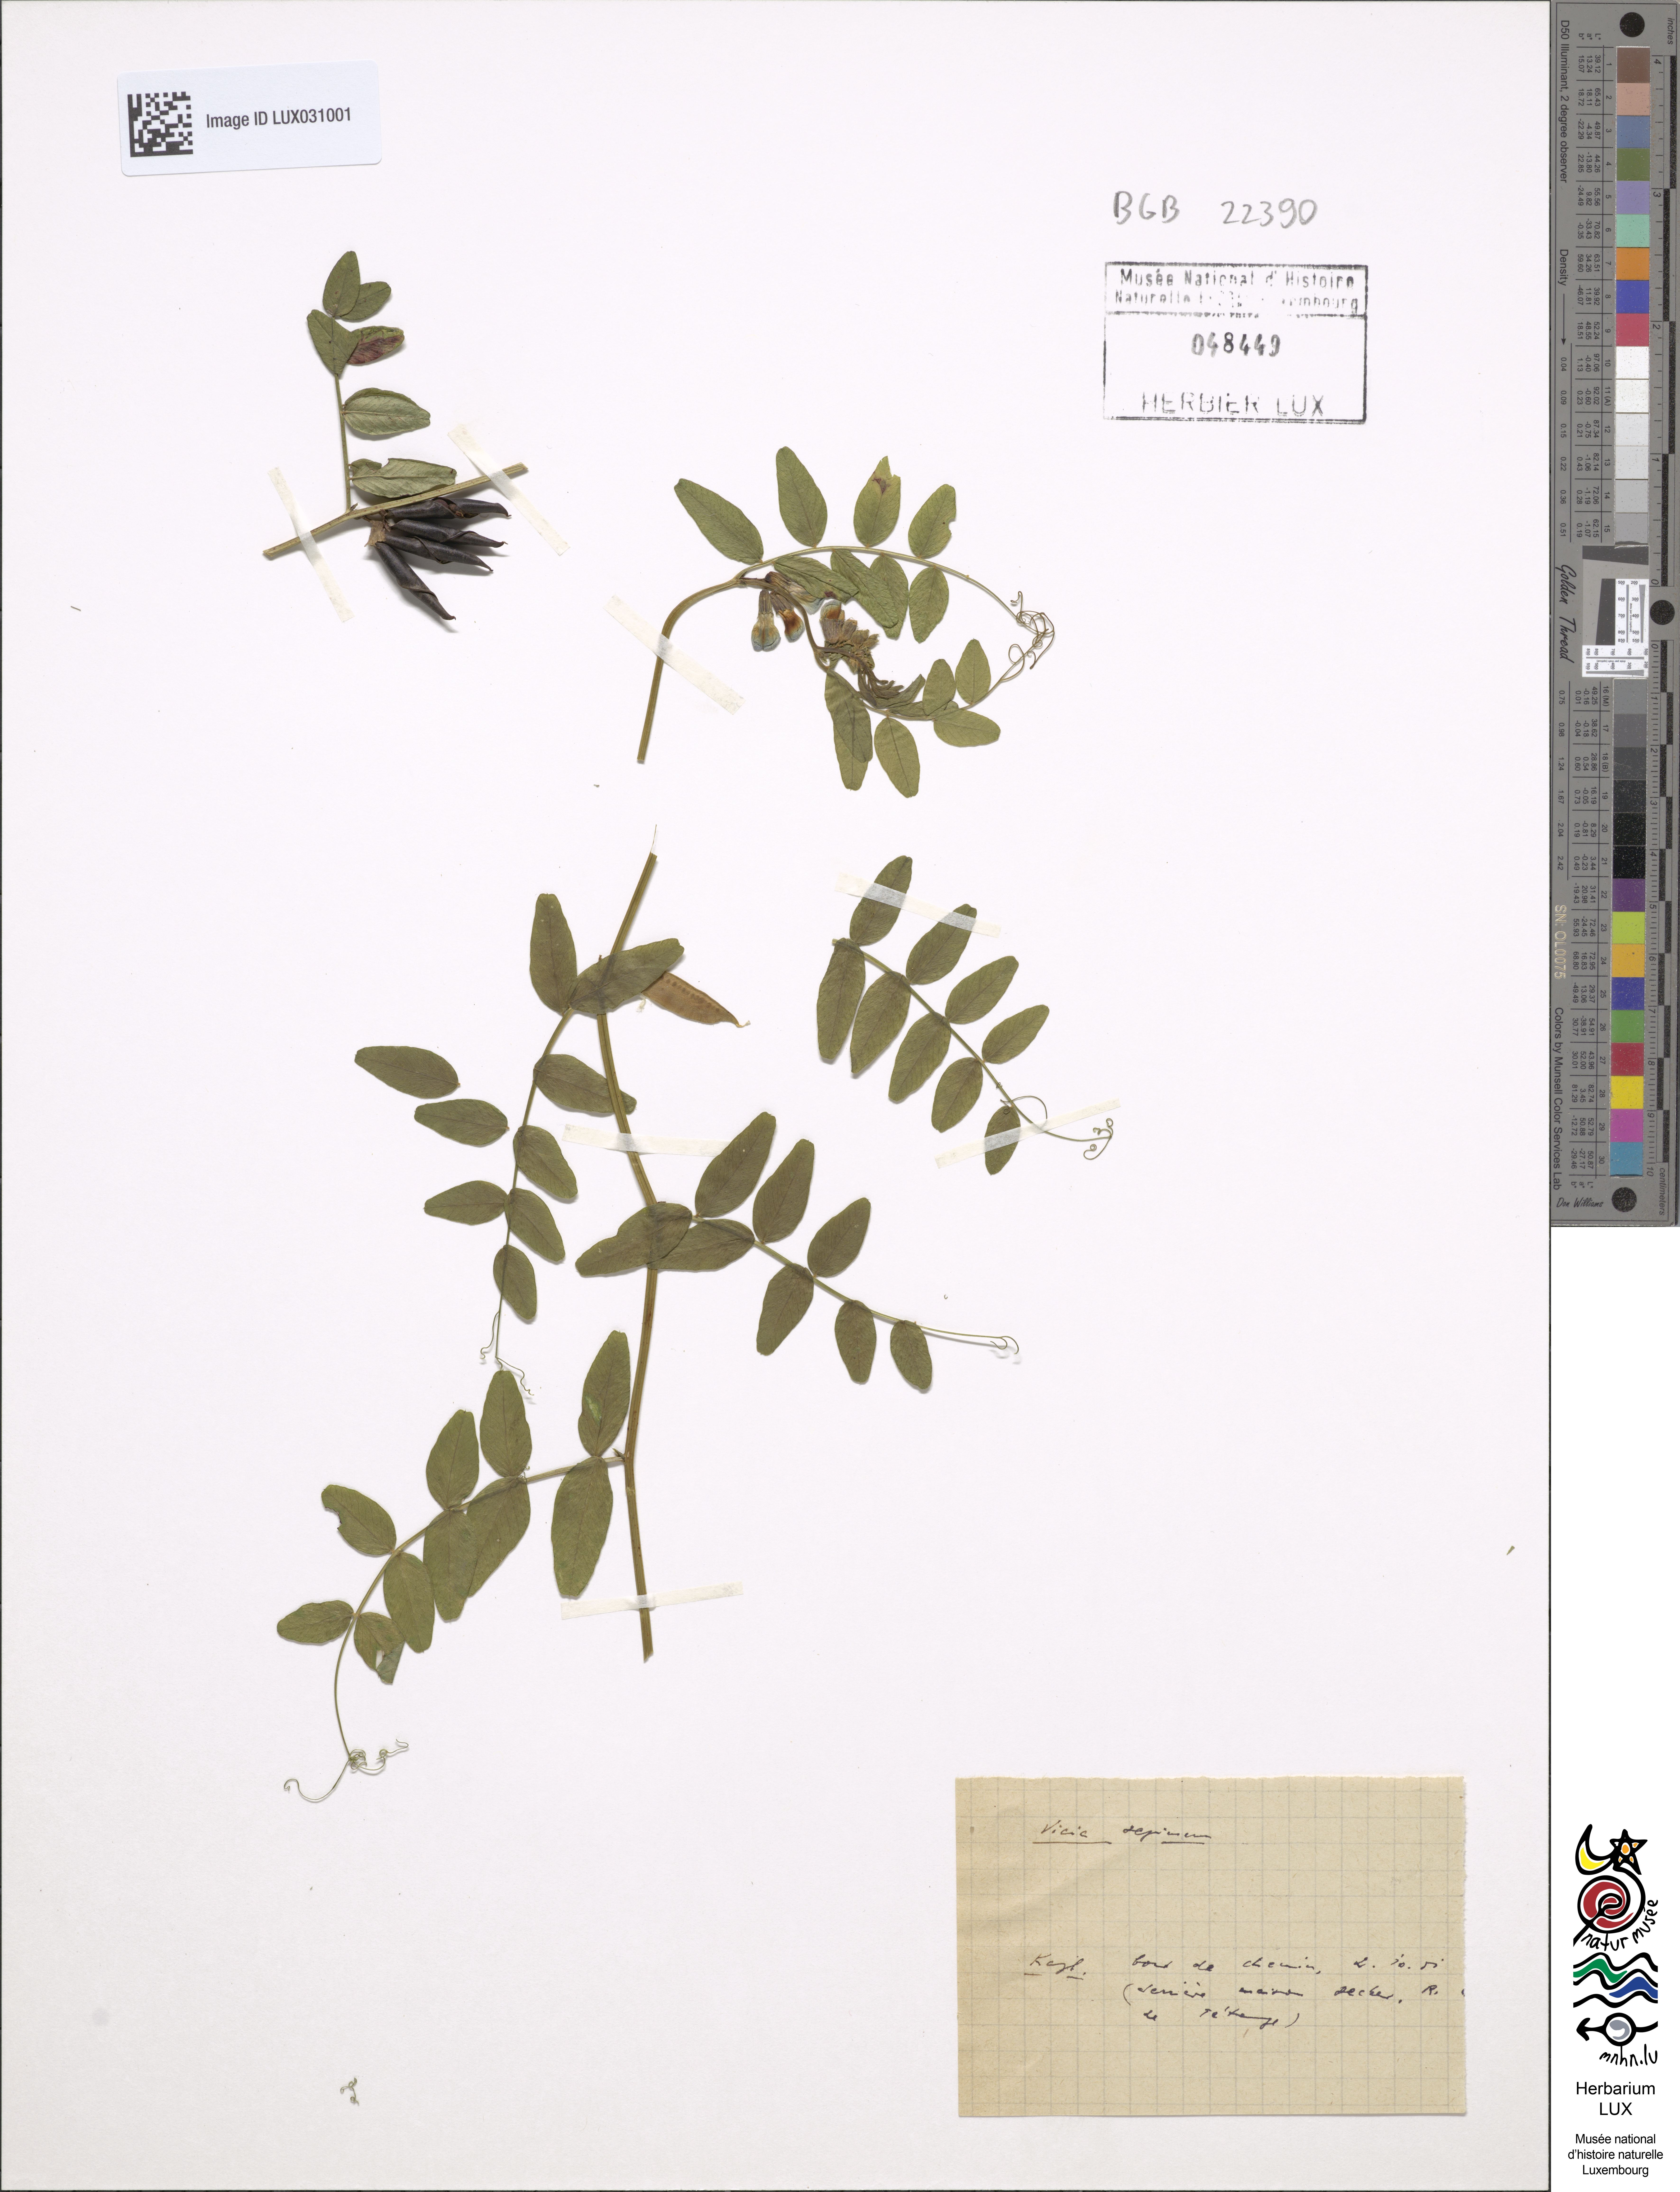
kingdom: Plantae
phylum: Tracheophyta
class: Magnoliopsida
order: Fabales
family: Fabaceae
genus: Vicia
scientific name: Vicia sepium
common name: Bush vetch
